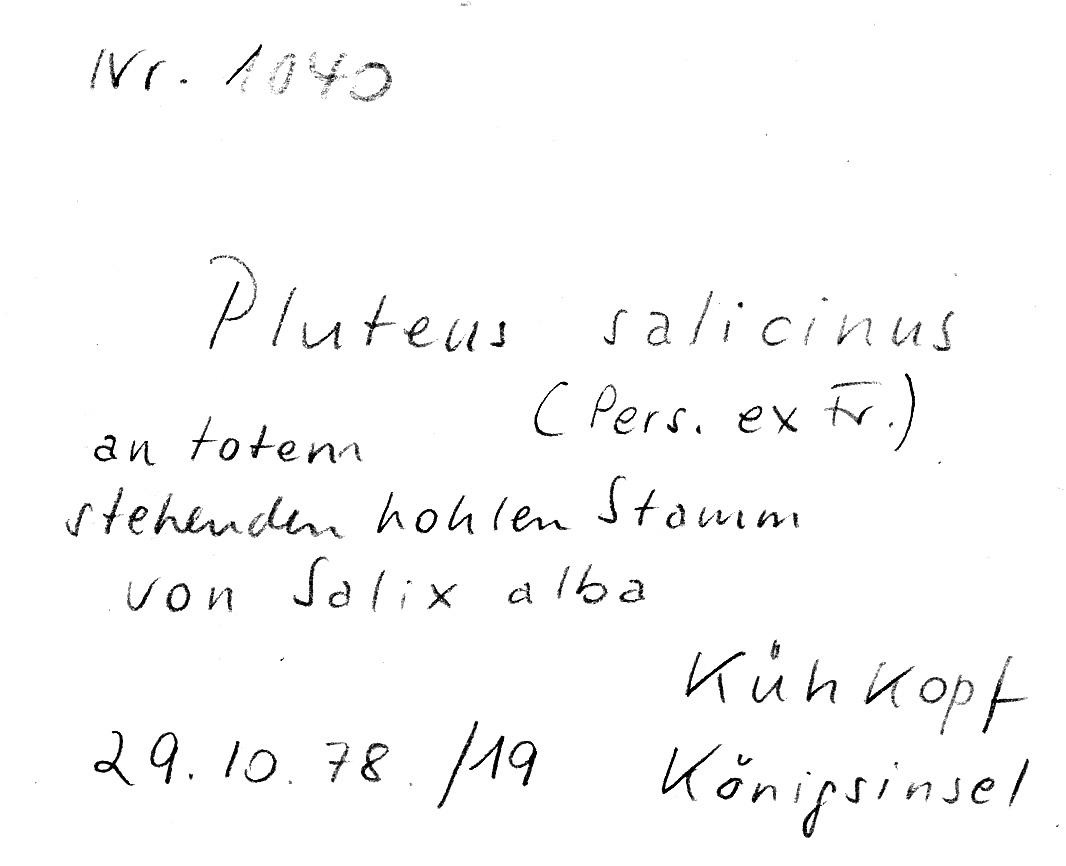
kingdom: Plantae
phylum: Tracheophyta
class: Magnoliopsida
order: Malpighiales
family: Salicaceae
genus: Salix
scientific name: Salix alba
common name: White willow
